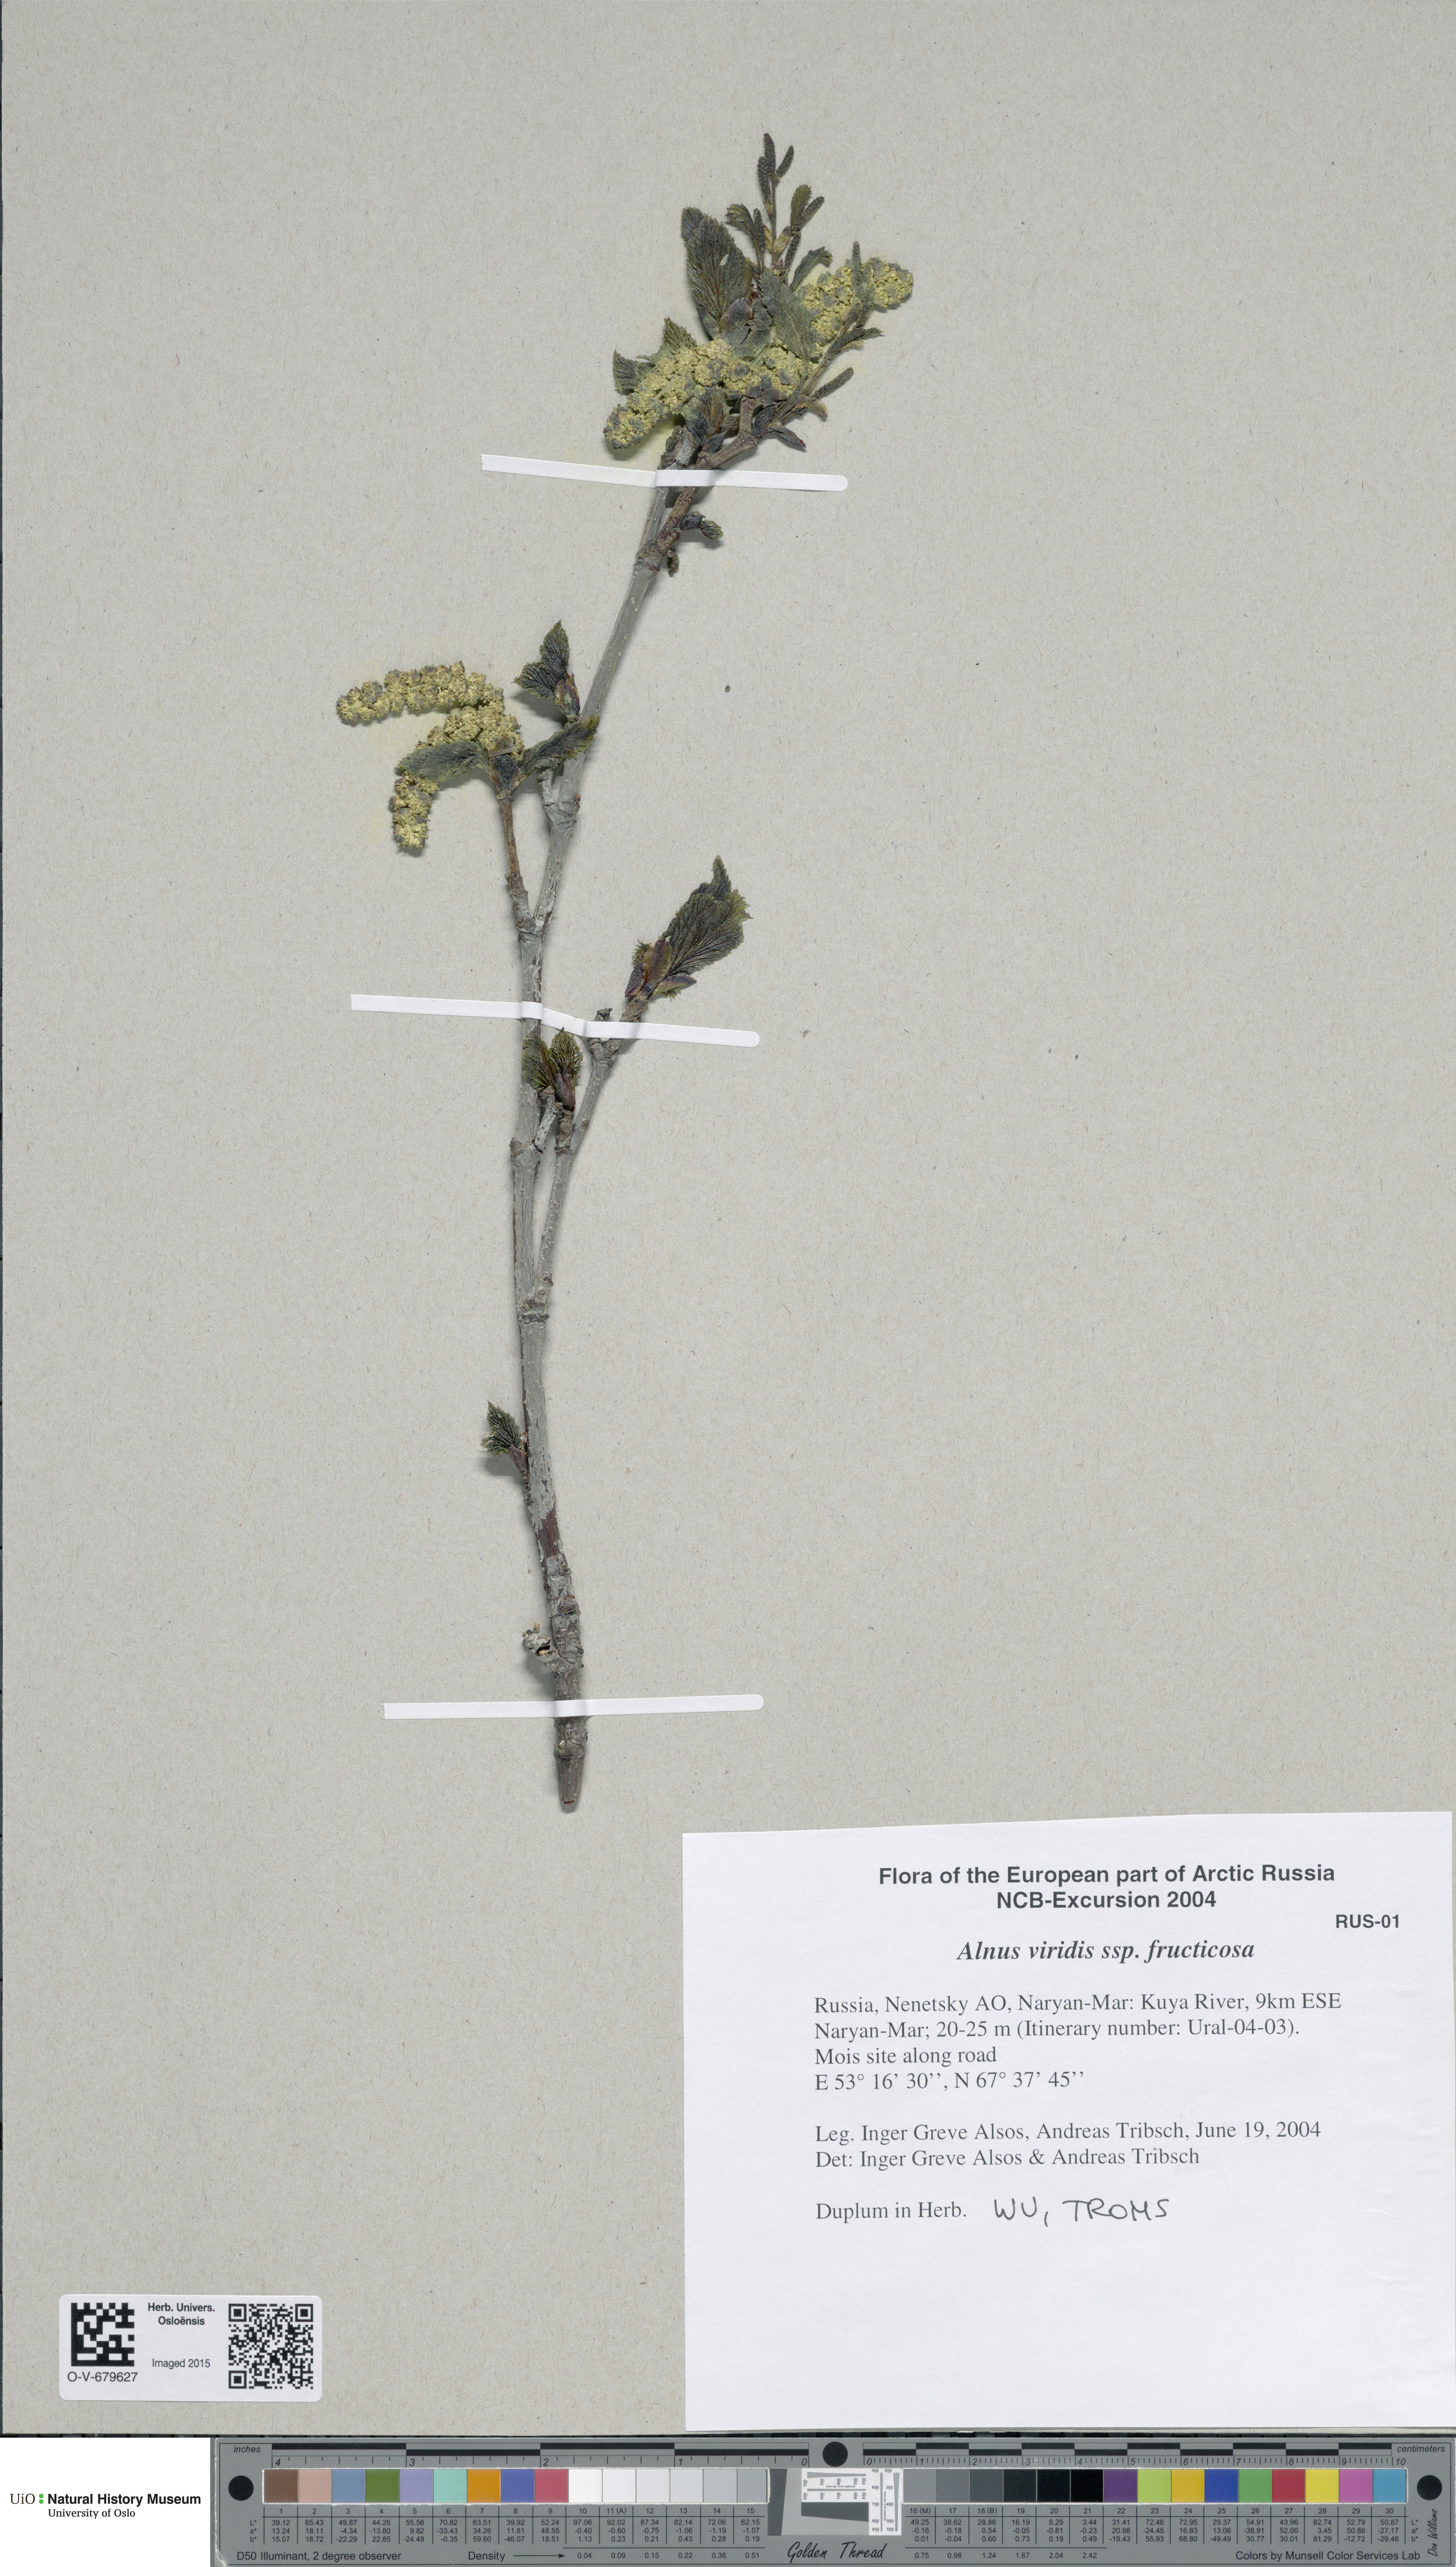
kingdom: Plantae
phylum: Tracheophyta
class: Magnoliopsida
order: Fagales
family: Betulaceae
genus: Alnus
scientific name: Alnus alnobetula
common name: Green alder
